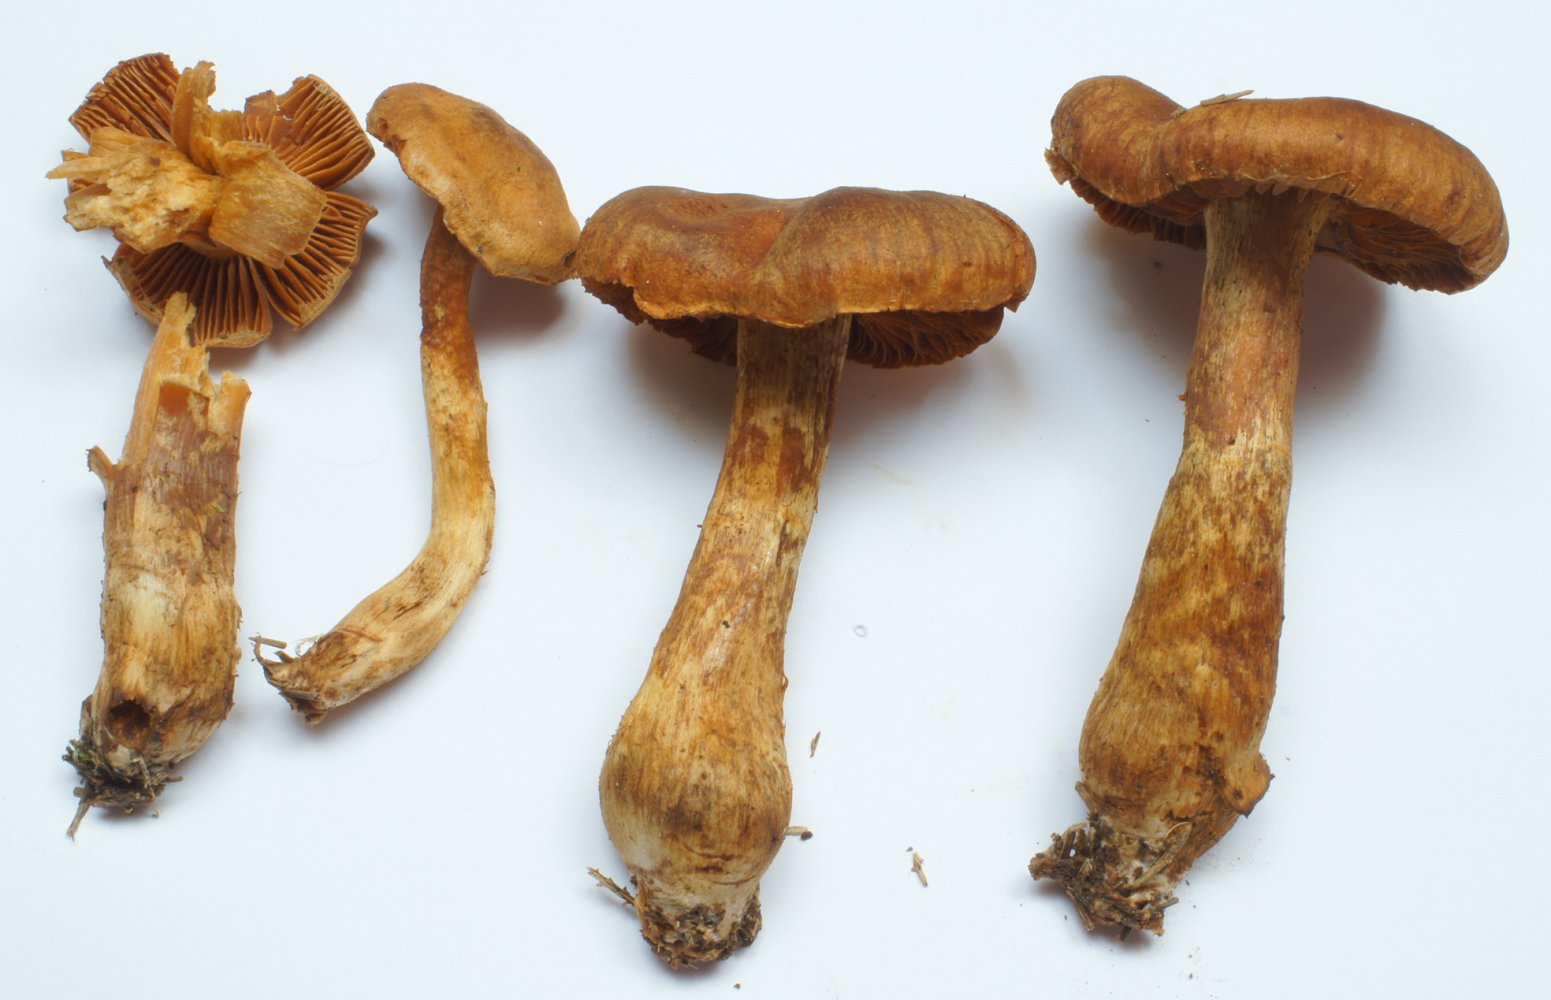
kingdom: Fungi
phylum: Basidiomycota
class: Agaricomycetes
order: Agaricales
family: Cortinariaceae
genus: Cortinarius
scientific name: Cortinarius rubellus
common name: puklet gift-slørhat
